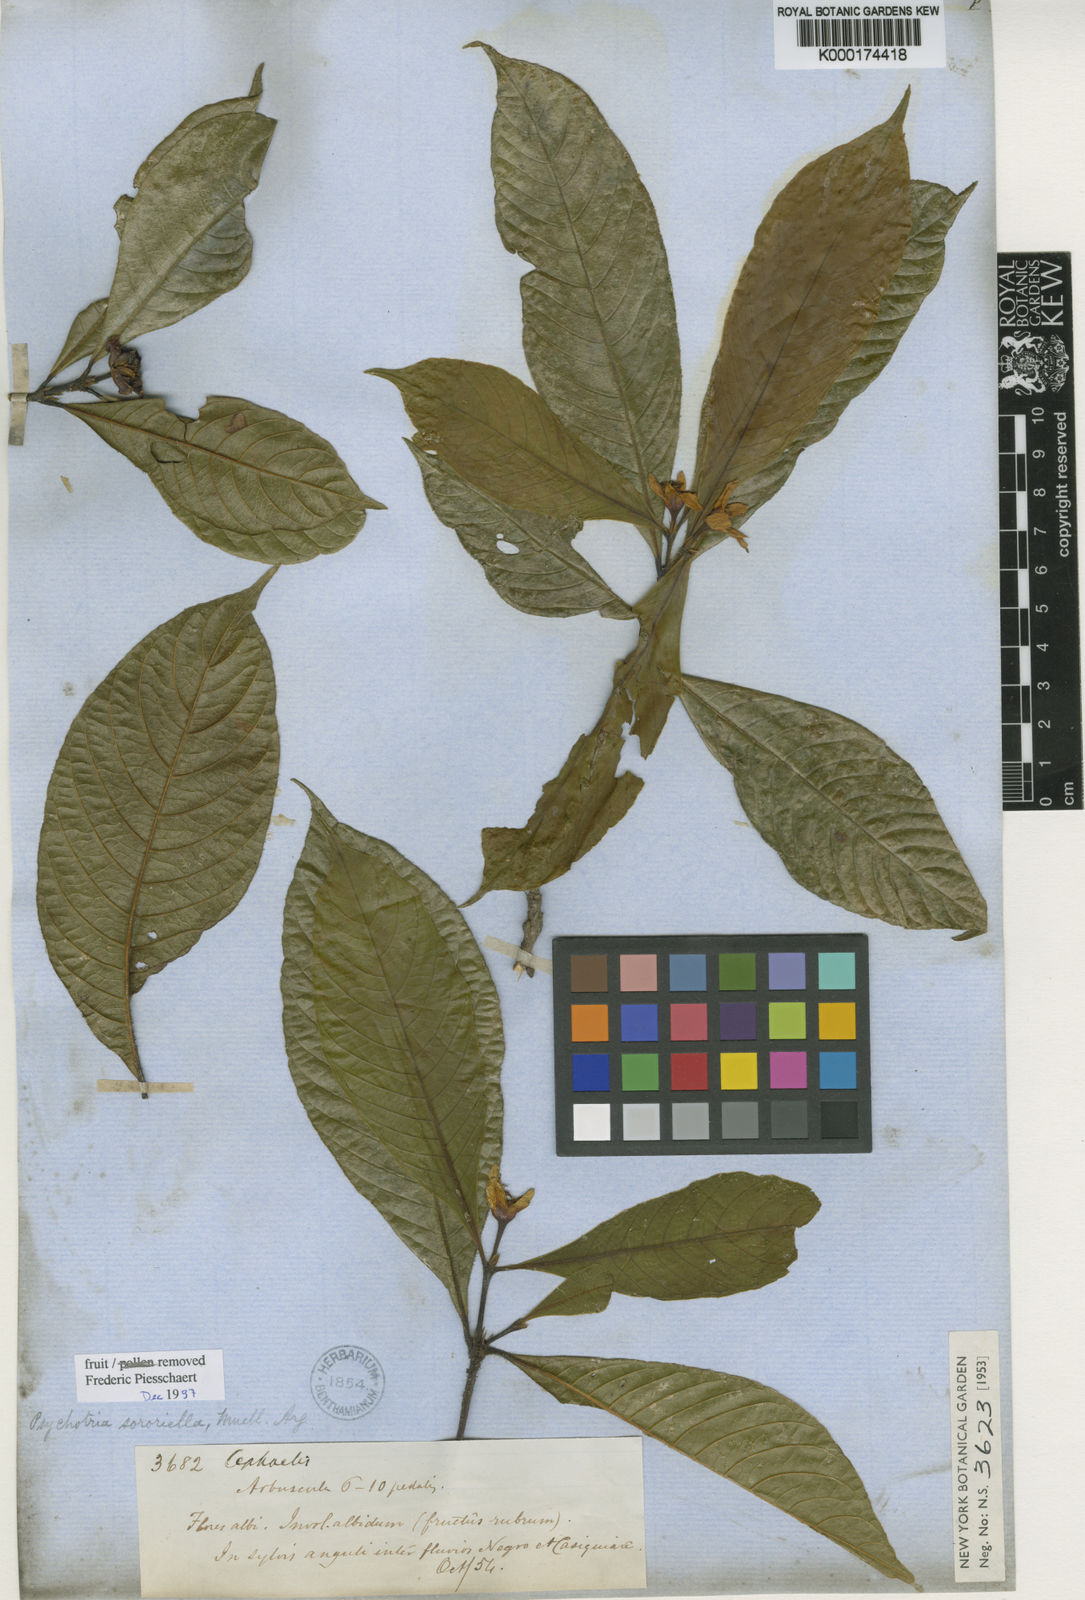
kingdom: Plantae
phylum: Tracheophyta
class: Magnoliopsida
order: Gentianales
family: Rubiaceae
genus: Psychotria
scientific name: Psychotria
